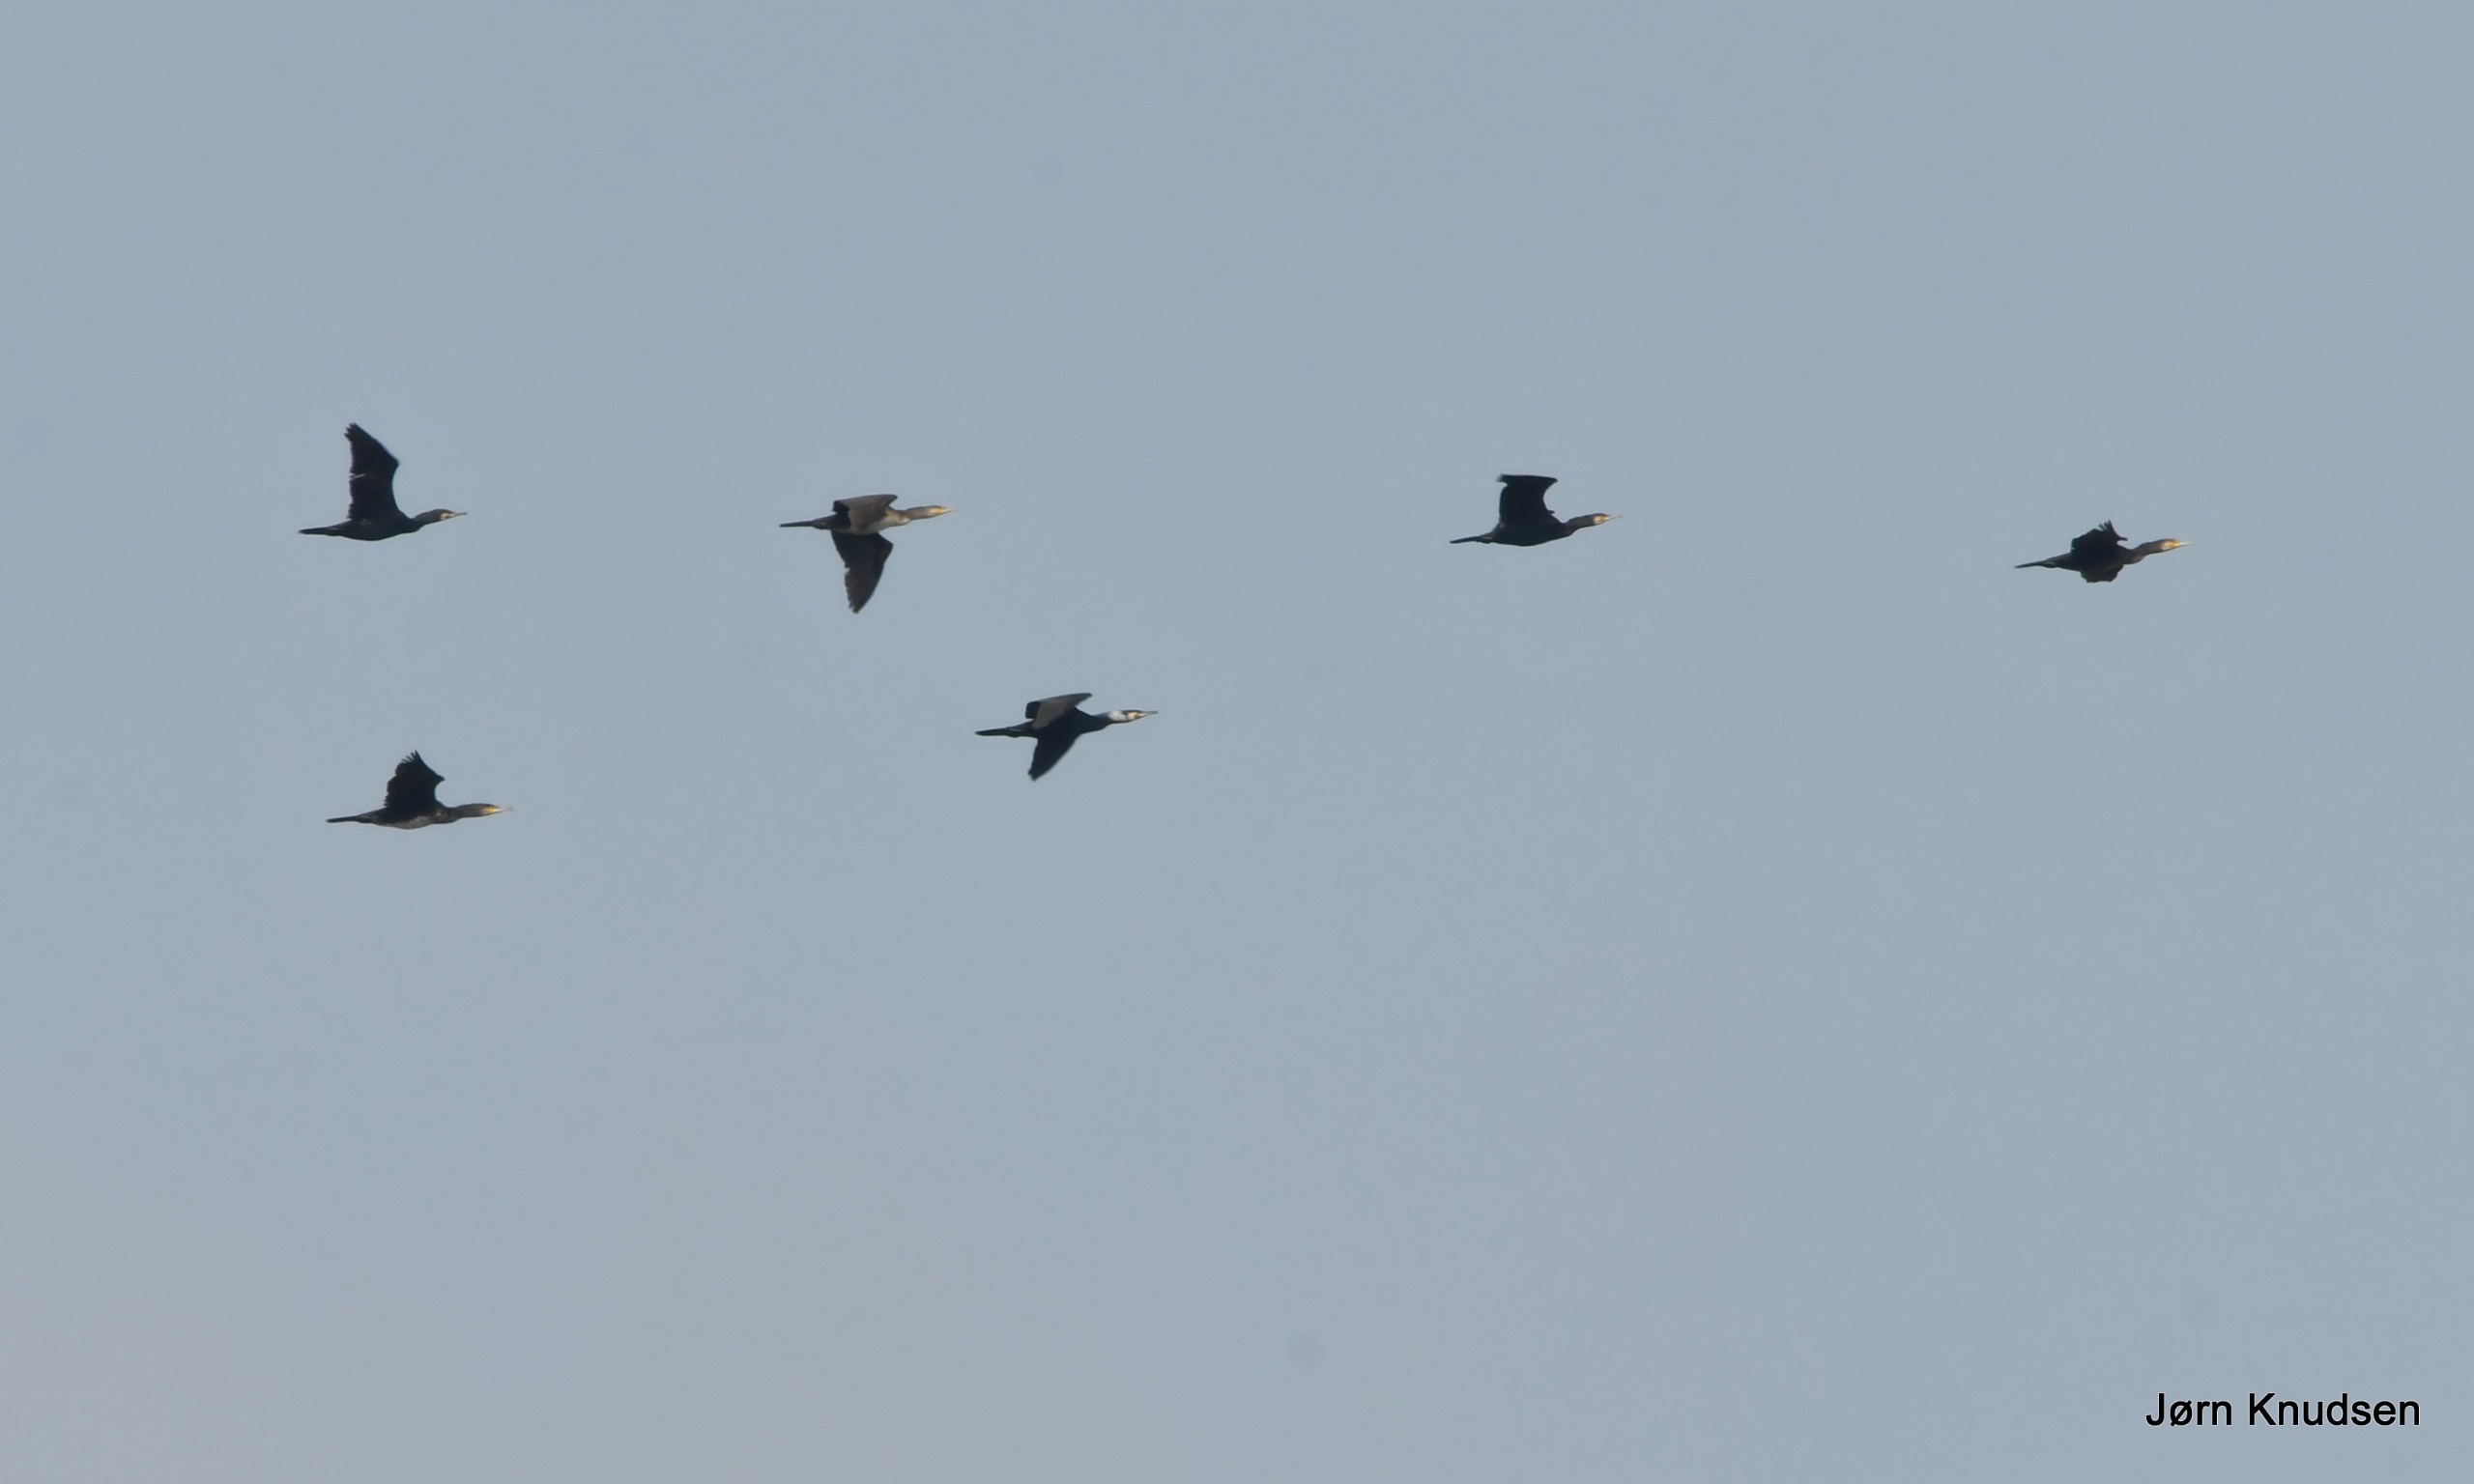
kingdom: Animalia
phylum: Chordata
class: Aves
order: Suliformes
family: Phalacrocoracidae
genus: Phalacrocorax
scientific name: Phalacrocorax carbo
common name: Skarv
